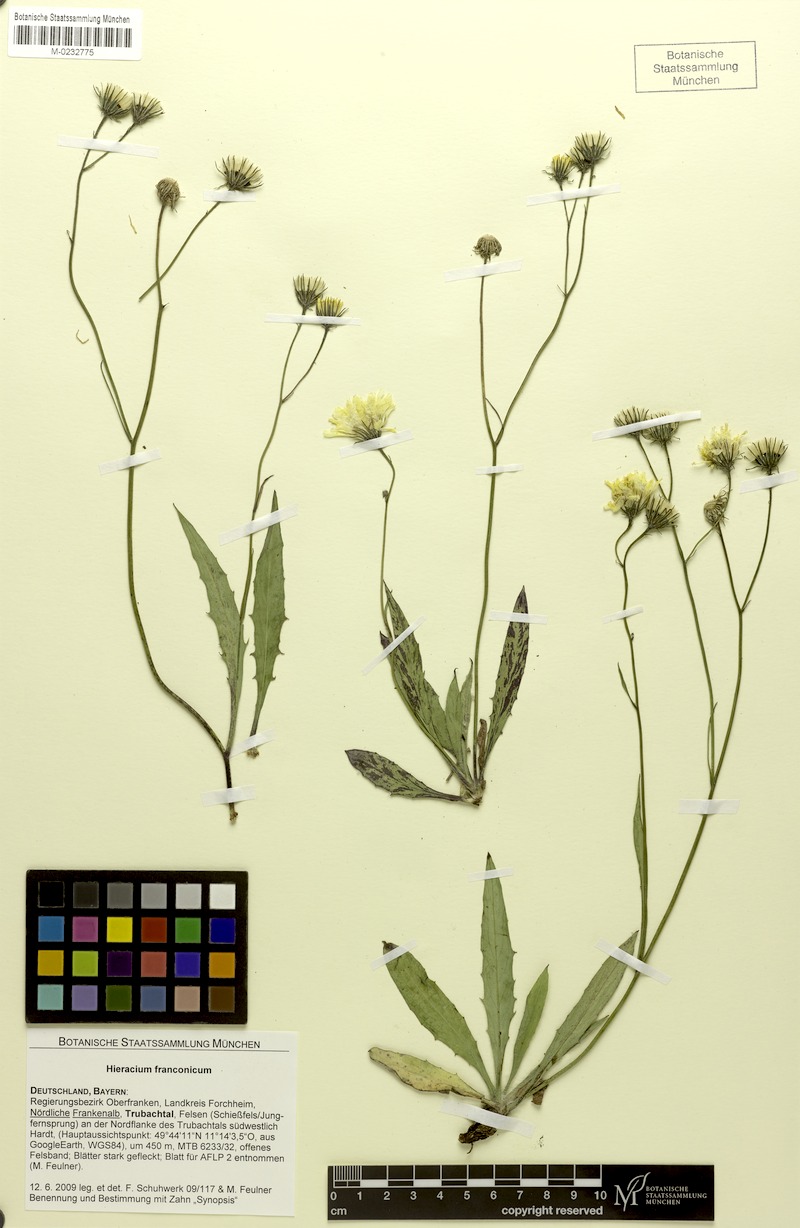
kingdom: Plantae
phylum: Tracheophyta
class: Magnoliopsida
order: Asterales
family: Asteraceae
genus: Hieracium
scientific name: Hieracium franconicum
